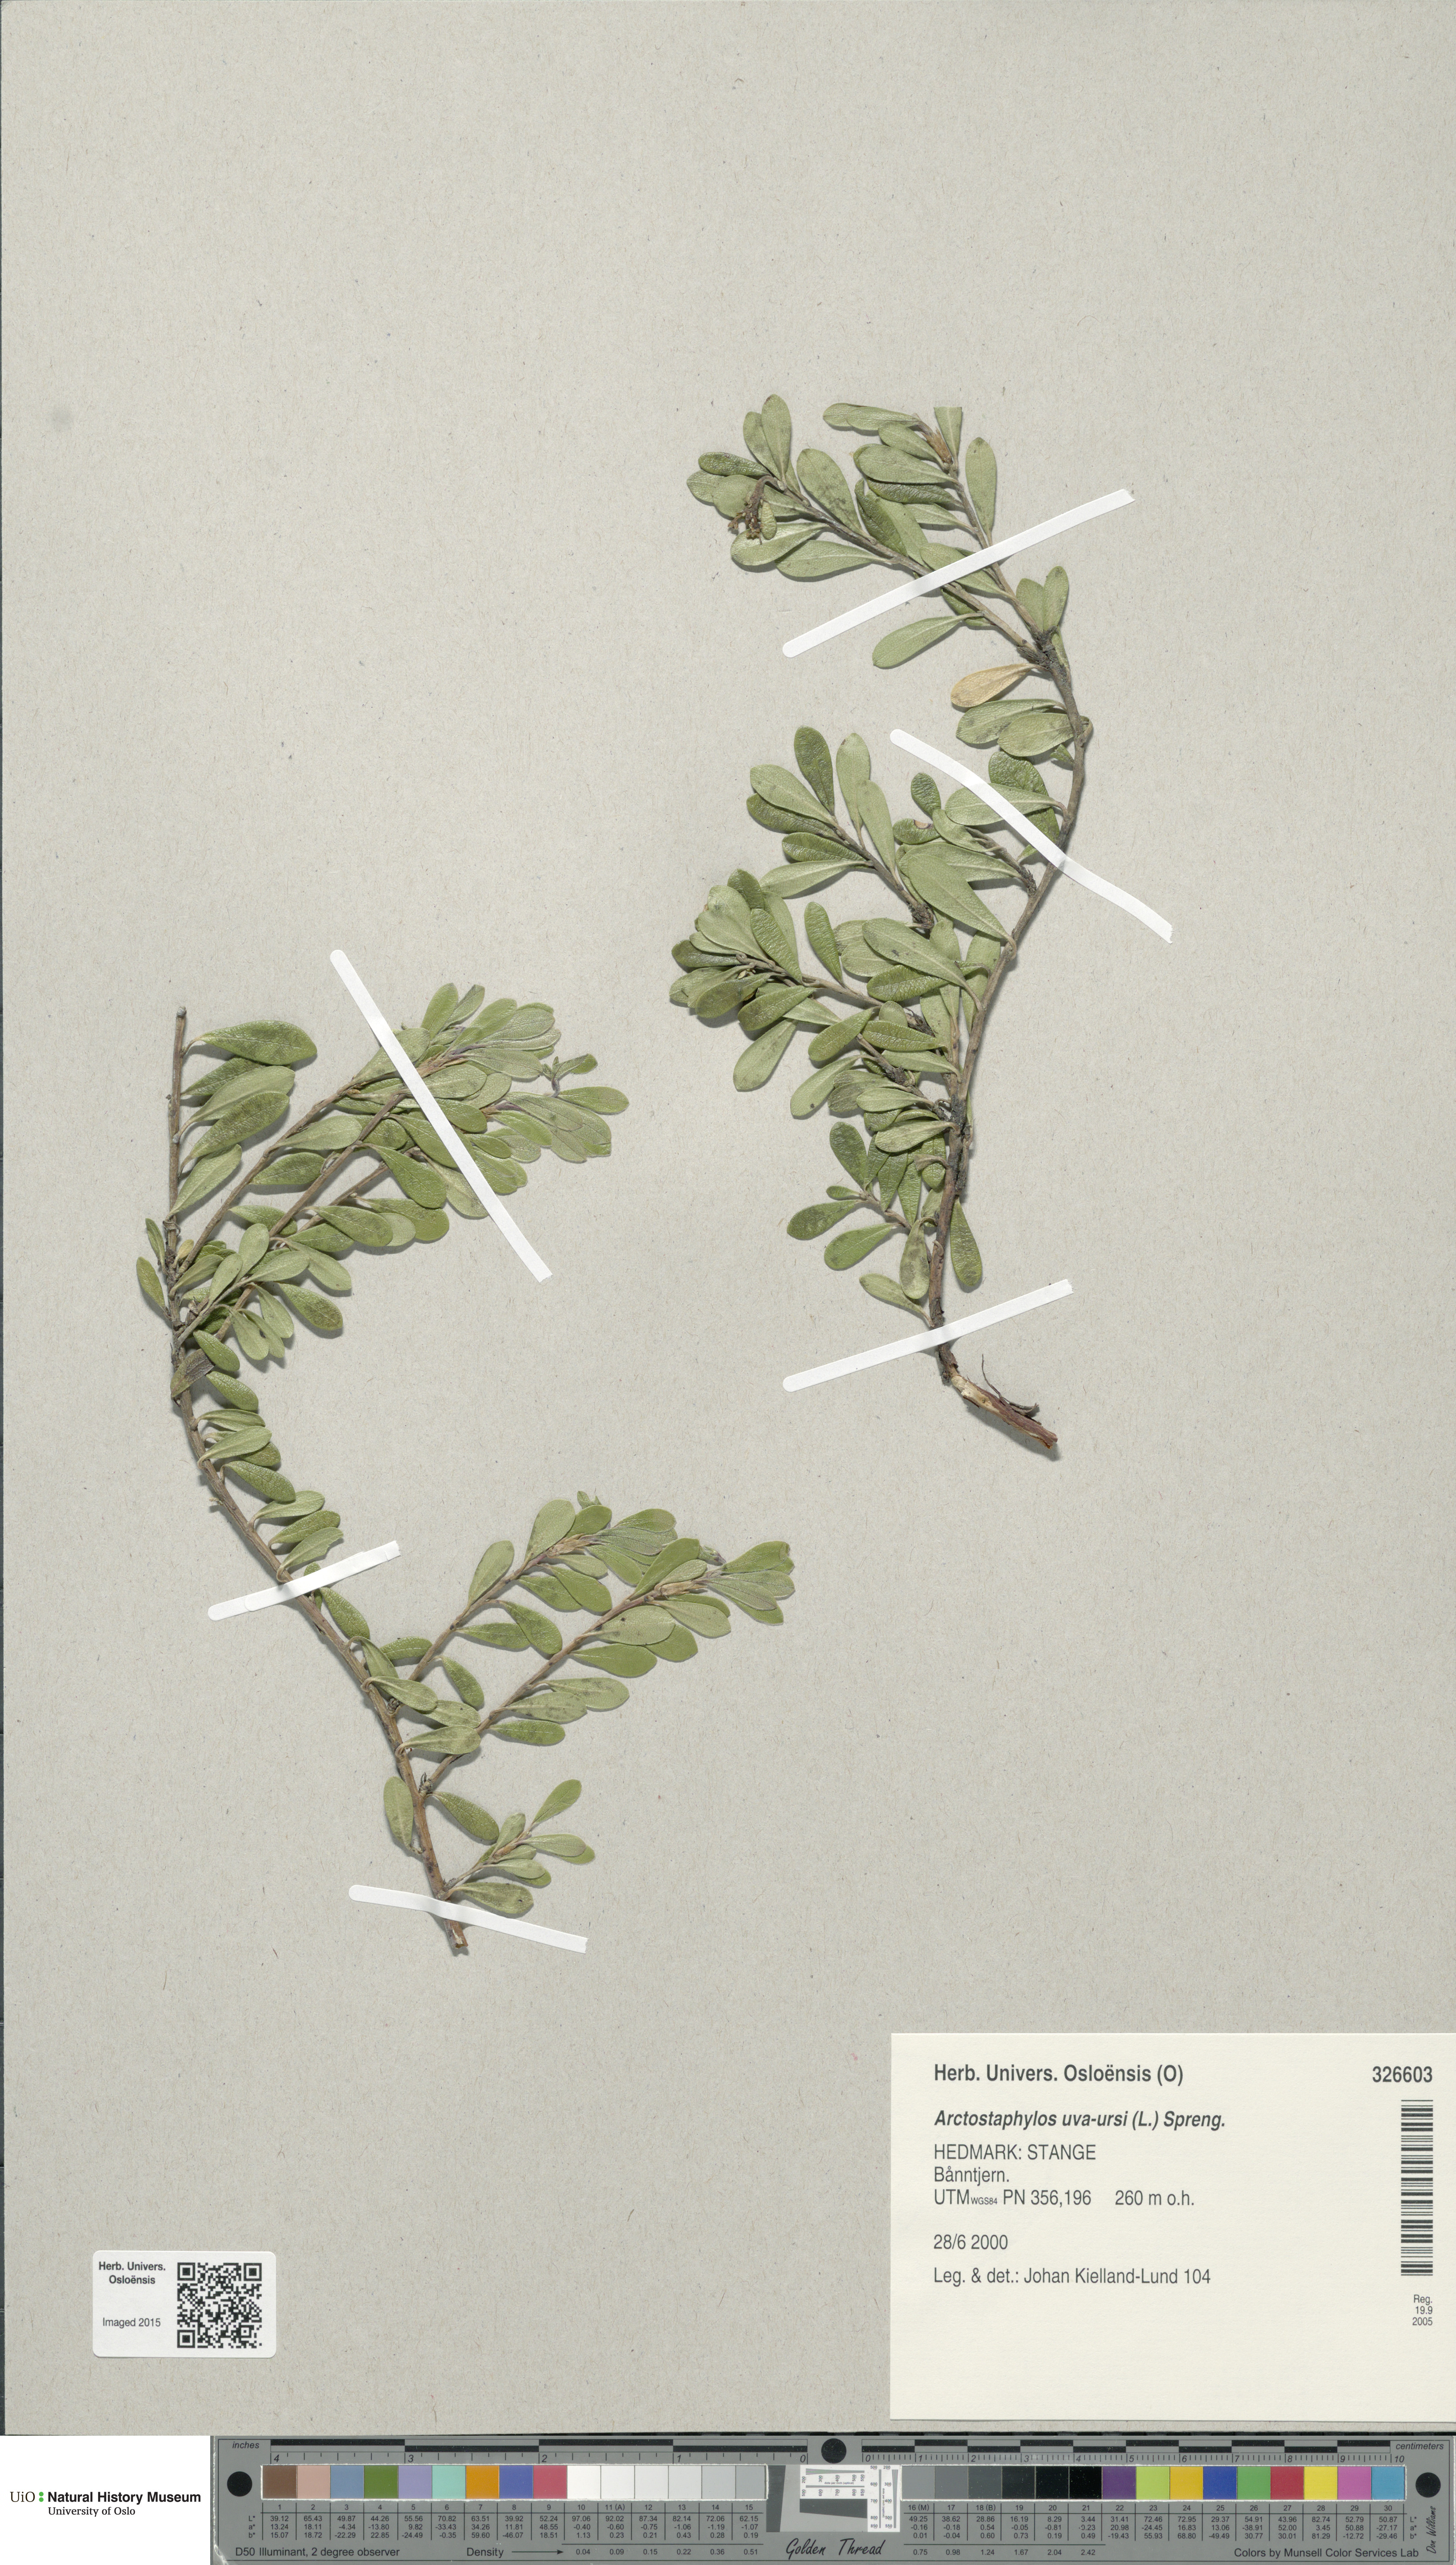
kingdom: Plantae
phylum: Tracheophyta
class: Magnoliopsida
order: Ericales
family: Ericaceae
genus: Arctostaphylos
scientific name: Arctostaphylos uva-ursi
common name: Bearberry
